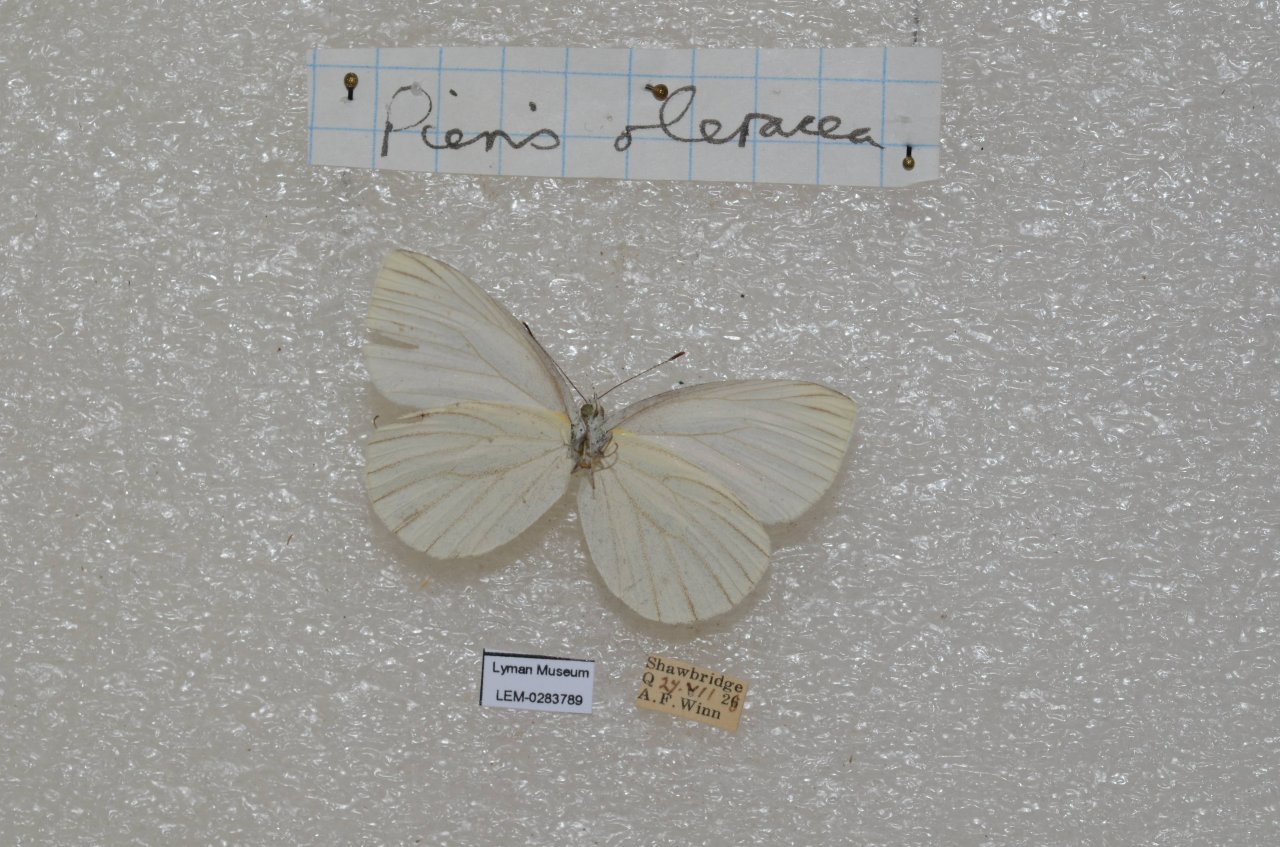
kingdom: Animalia
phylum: Arthropoda
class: Insecta
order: Lepidoptera
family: Pieridae
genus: Pieris
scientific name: Pieris oleracea
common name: Mustard White
